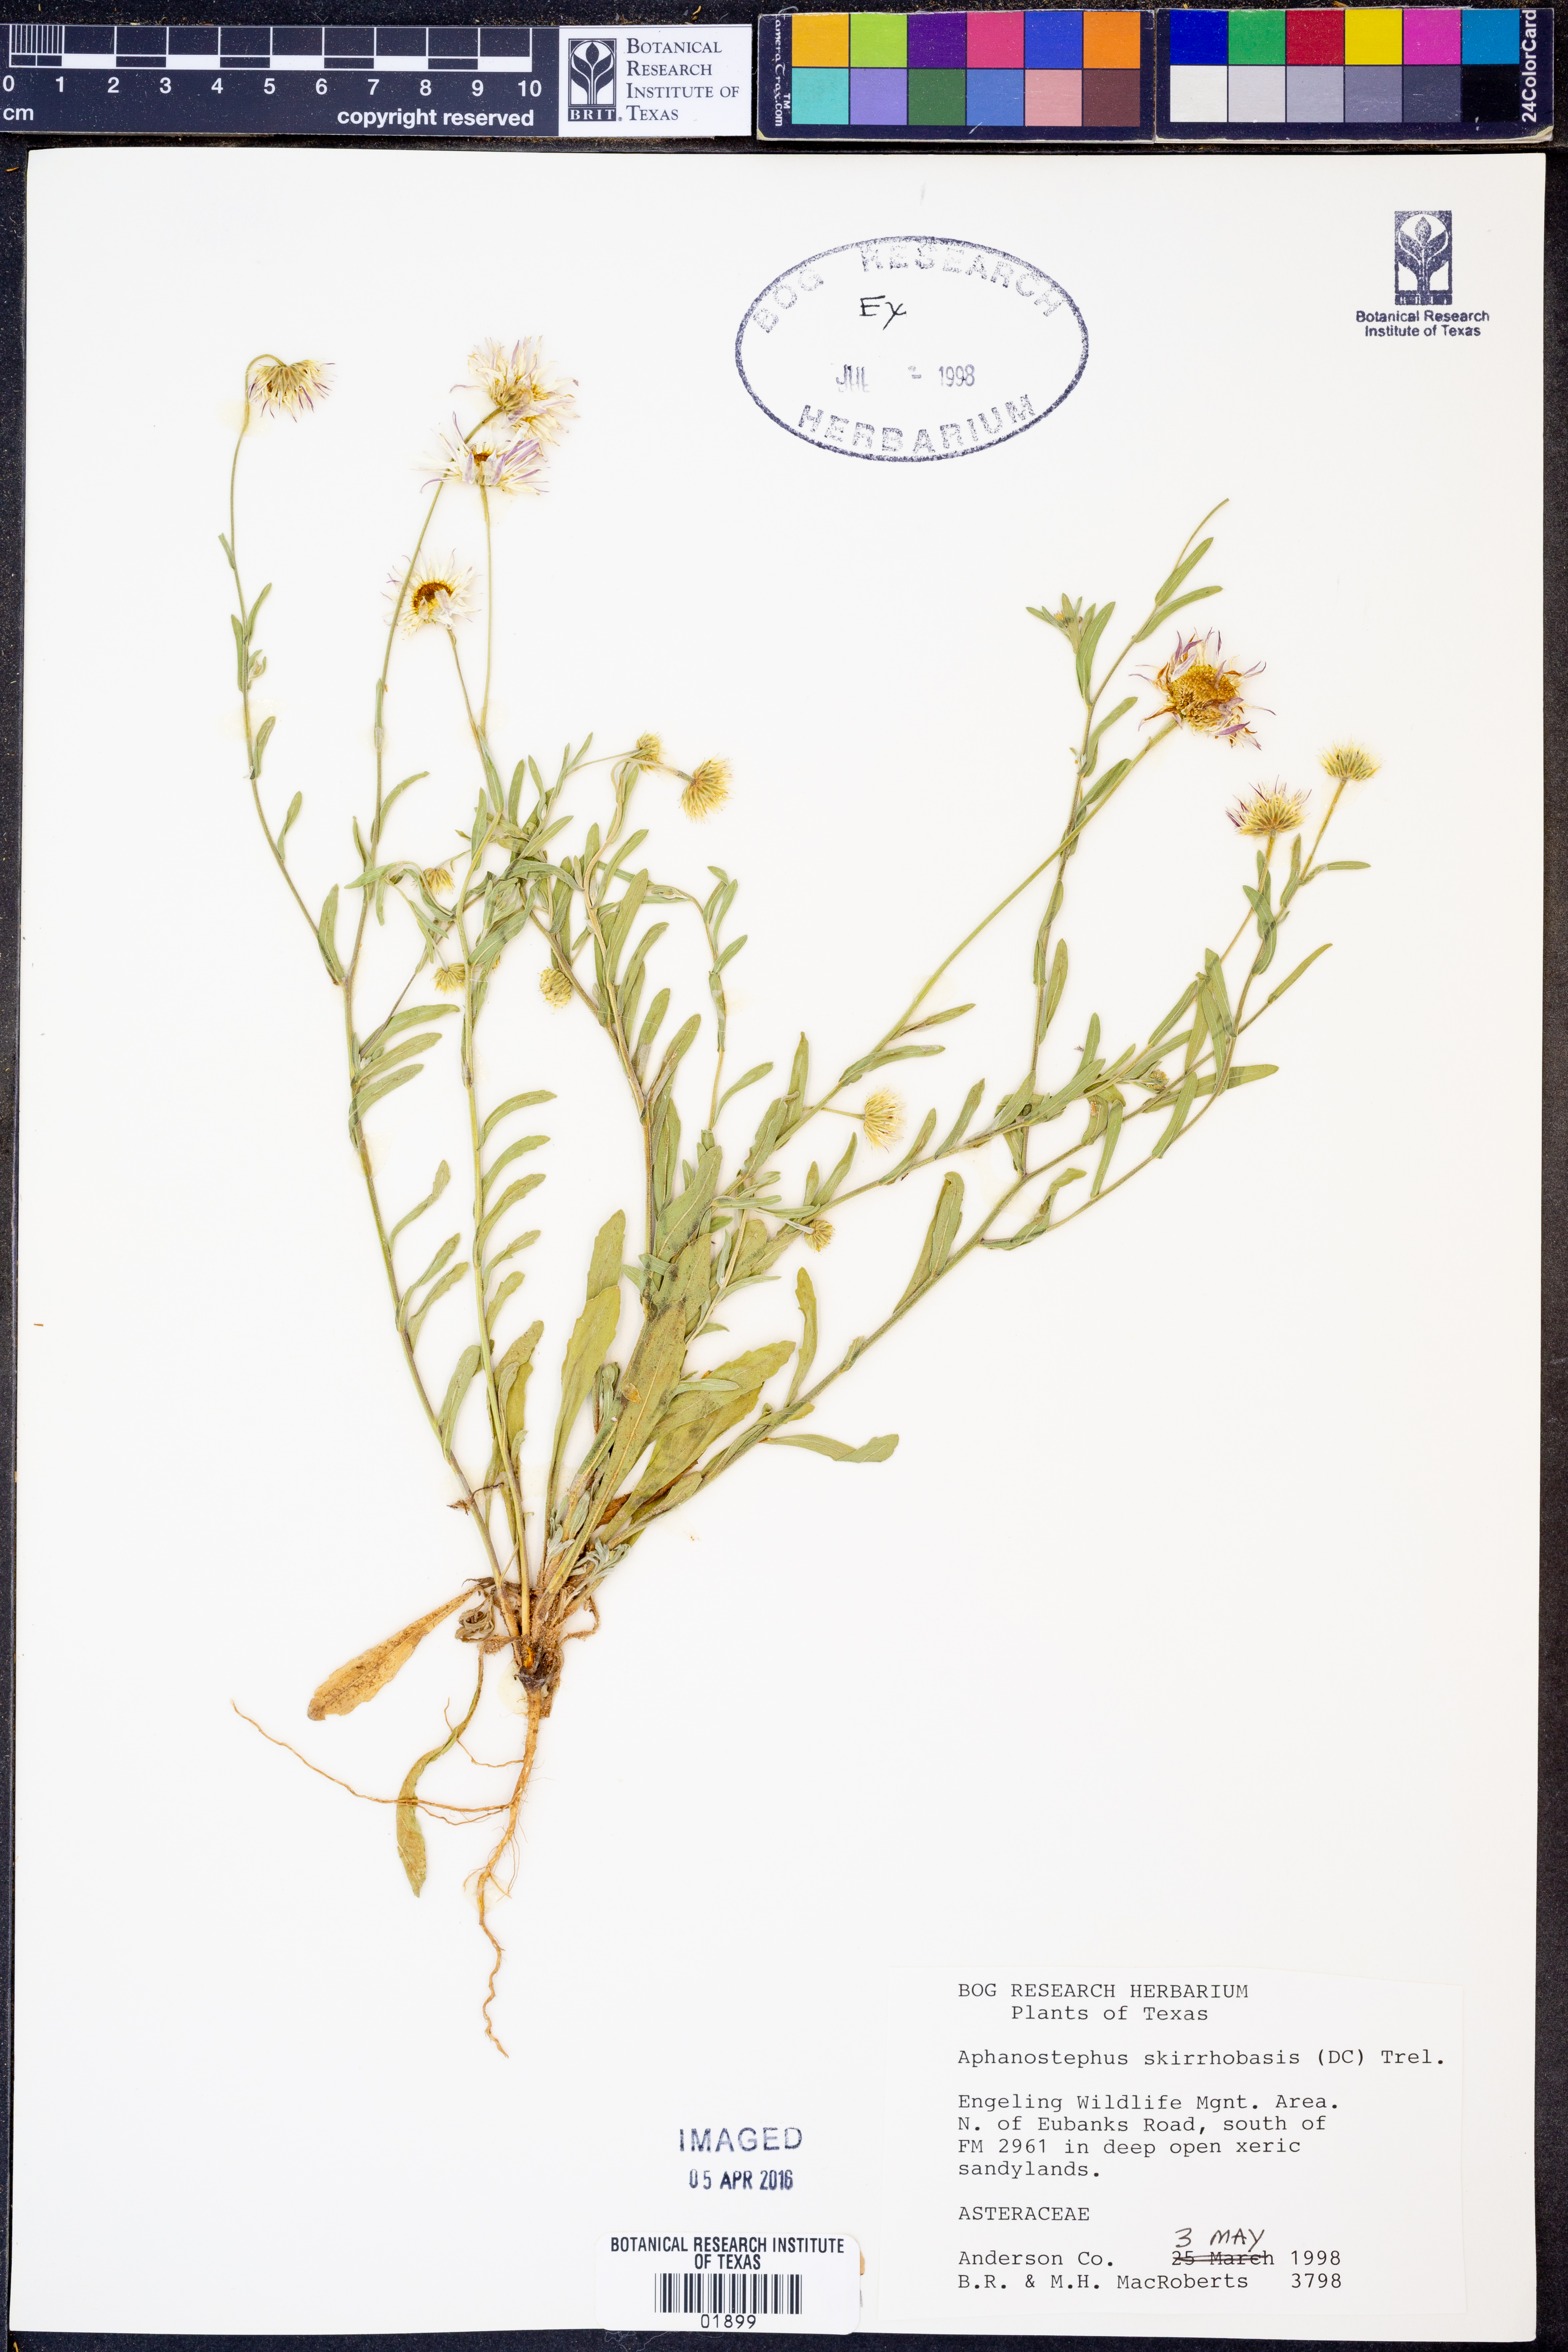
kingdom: Plantae
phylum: Tracheophyta
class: Magnoliopsida
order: Asterales
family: Asteraceae
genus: Aphanostephus
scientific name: Aphanostephus skirrhobasis
